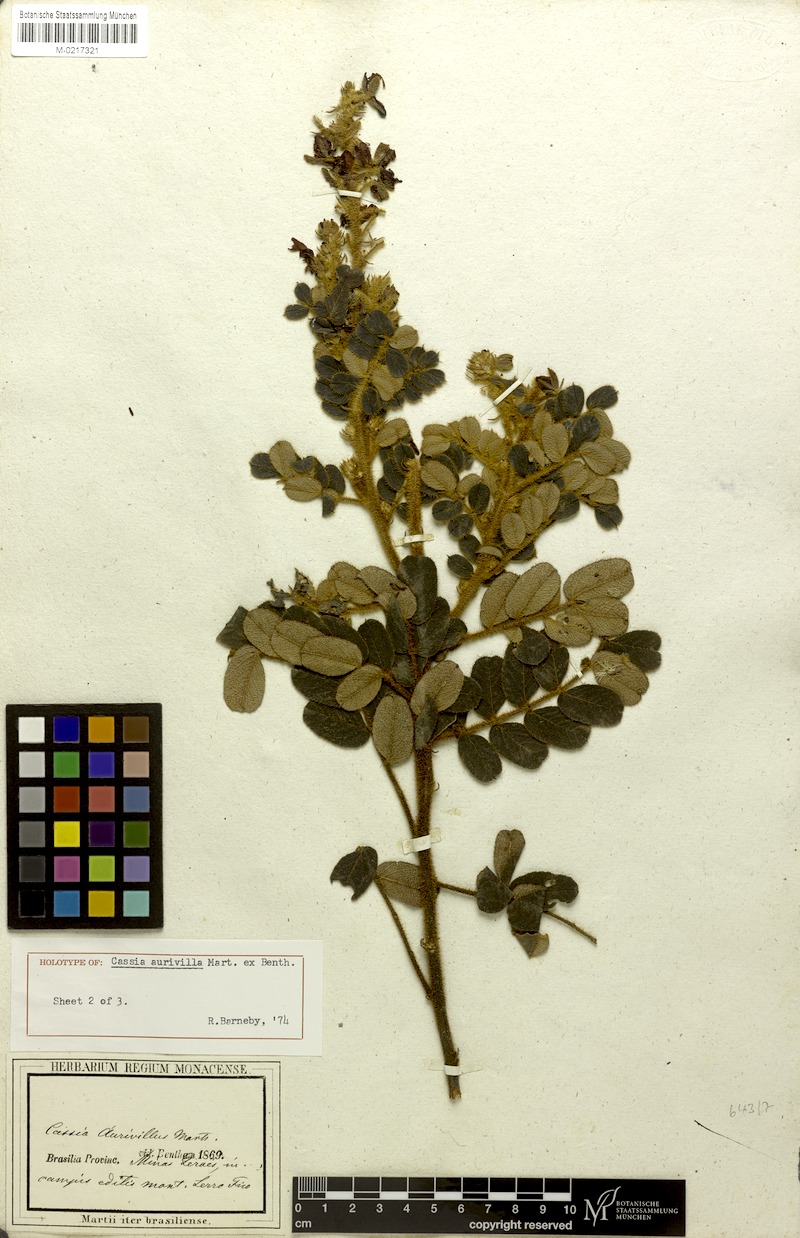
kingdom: Plantae
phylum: Tracheophyta
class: Magnoliopsida
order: Fabales
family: Fabaceae
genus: Chamaecrista
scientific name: Chamaecrista aurivilla
